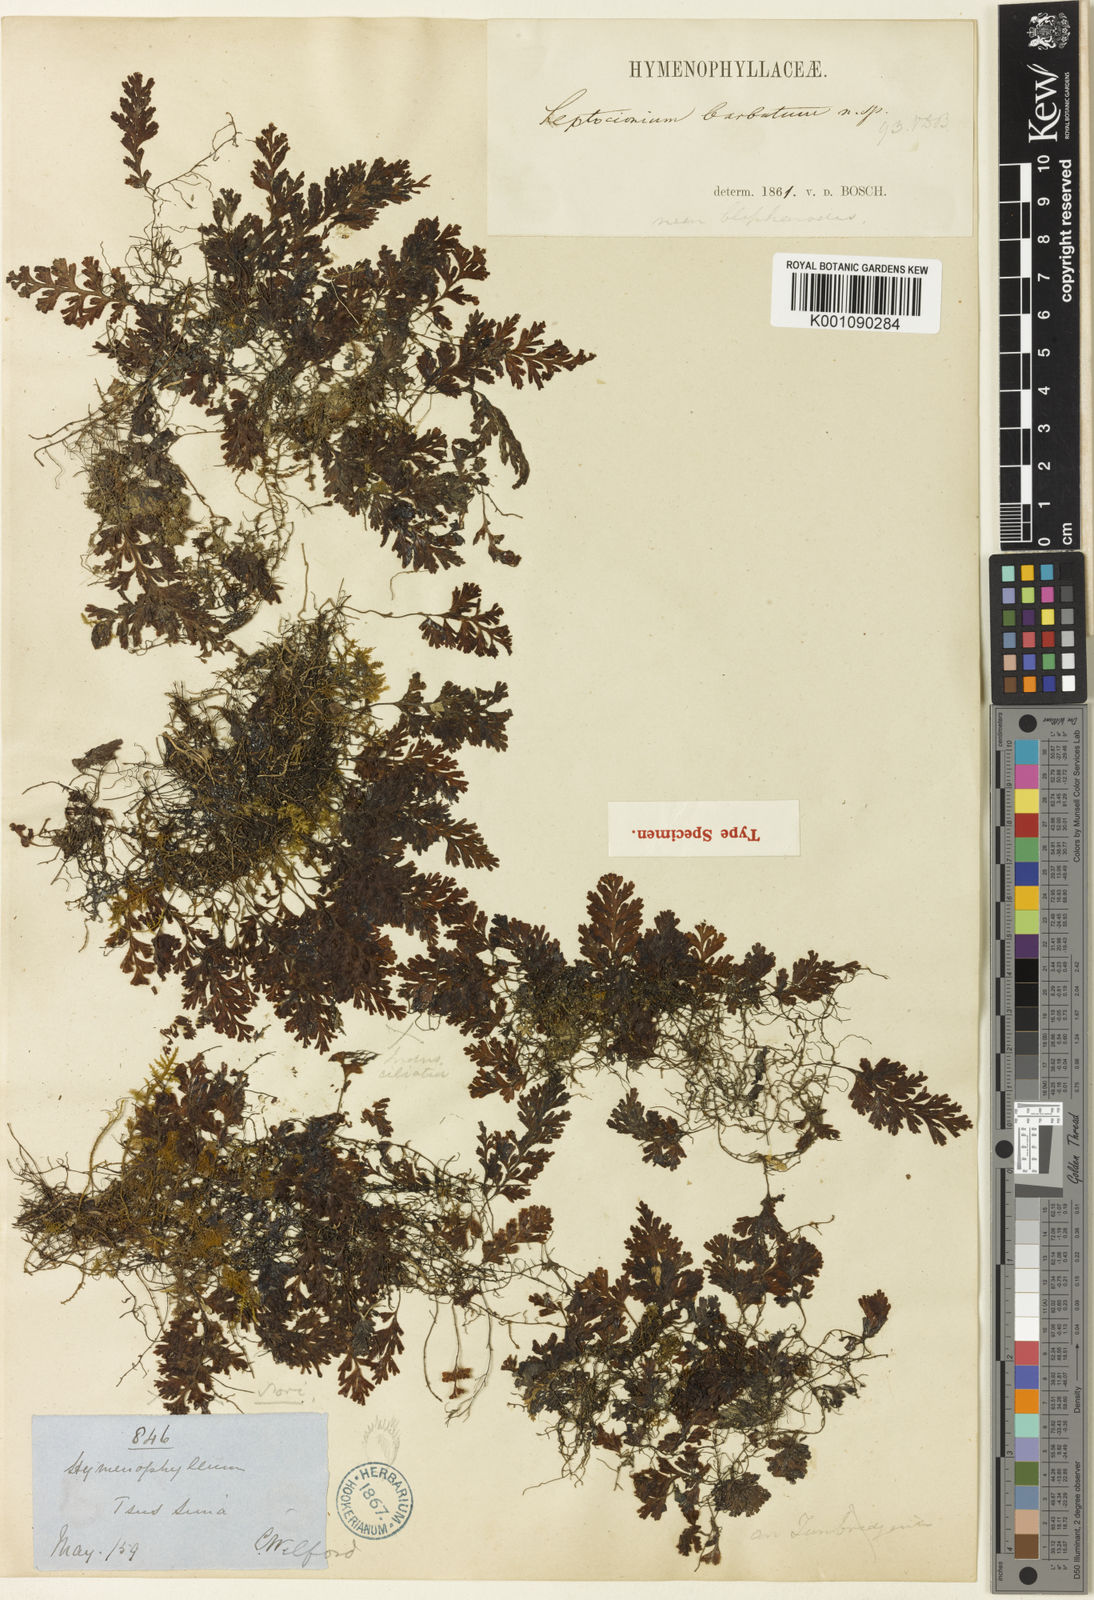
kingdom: Plantae
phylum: Tracheophyta
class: Polypodiopsida
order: Hymenophyllales
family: Hymenophyllaceae
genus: Hymenophyllum
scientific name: Hymenophyllum barbatum
